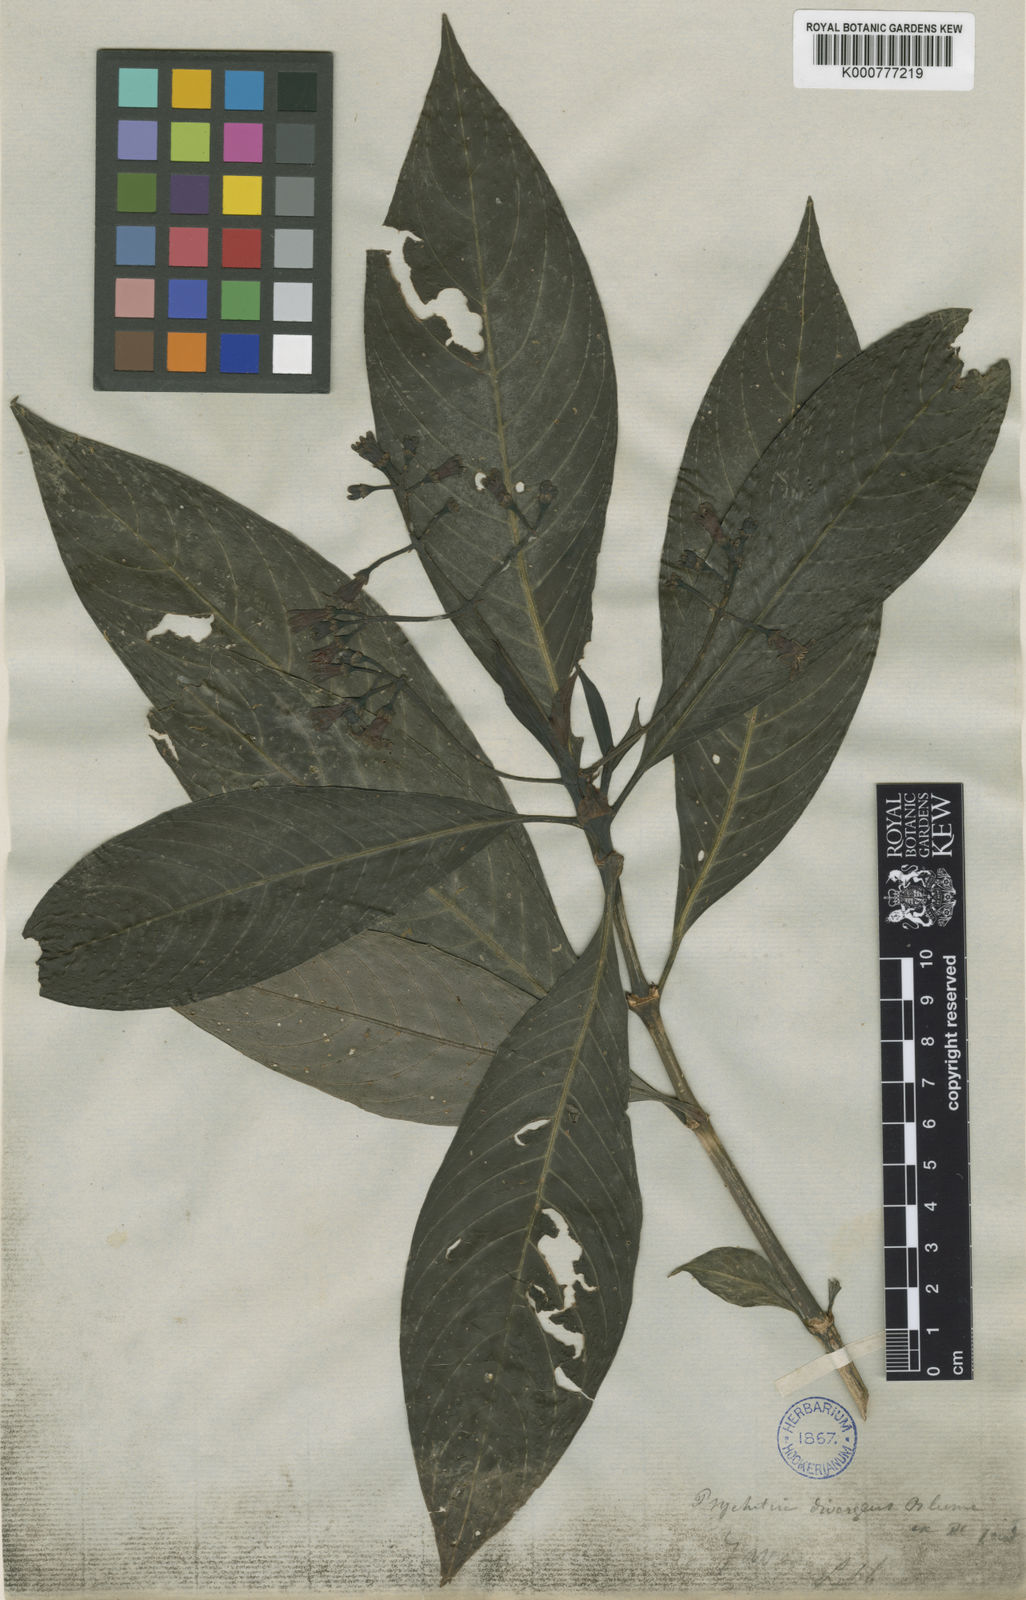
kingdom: Plantae
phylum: Tracheophyta
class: Magnoliopsida
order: Gentianales
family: Rubiaceae
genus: Psychotria
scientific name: Psychotria divergens
